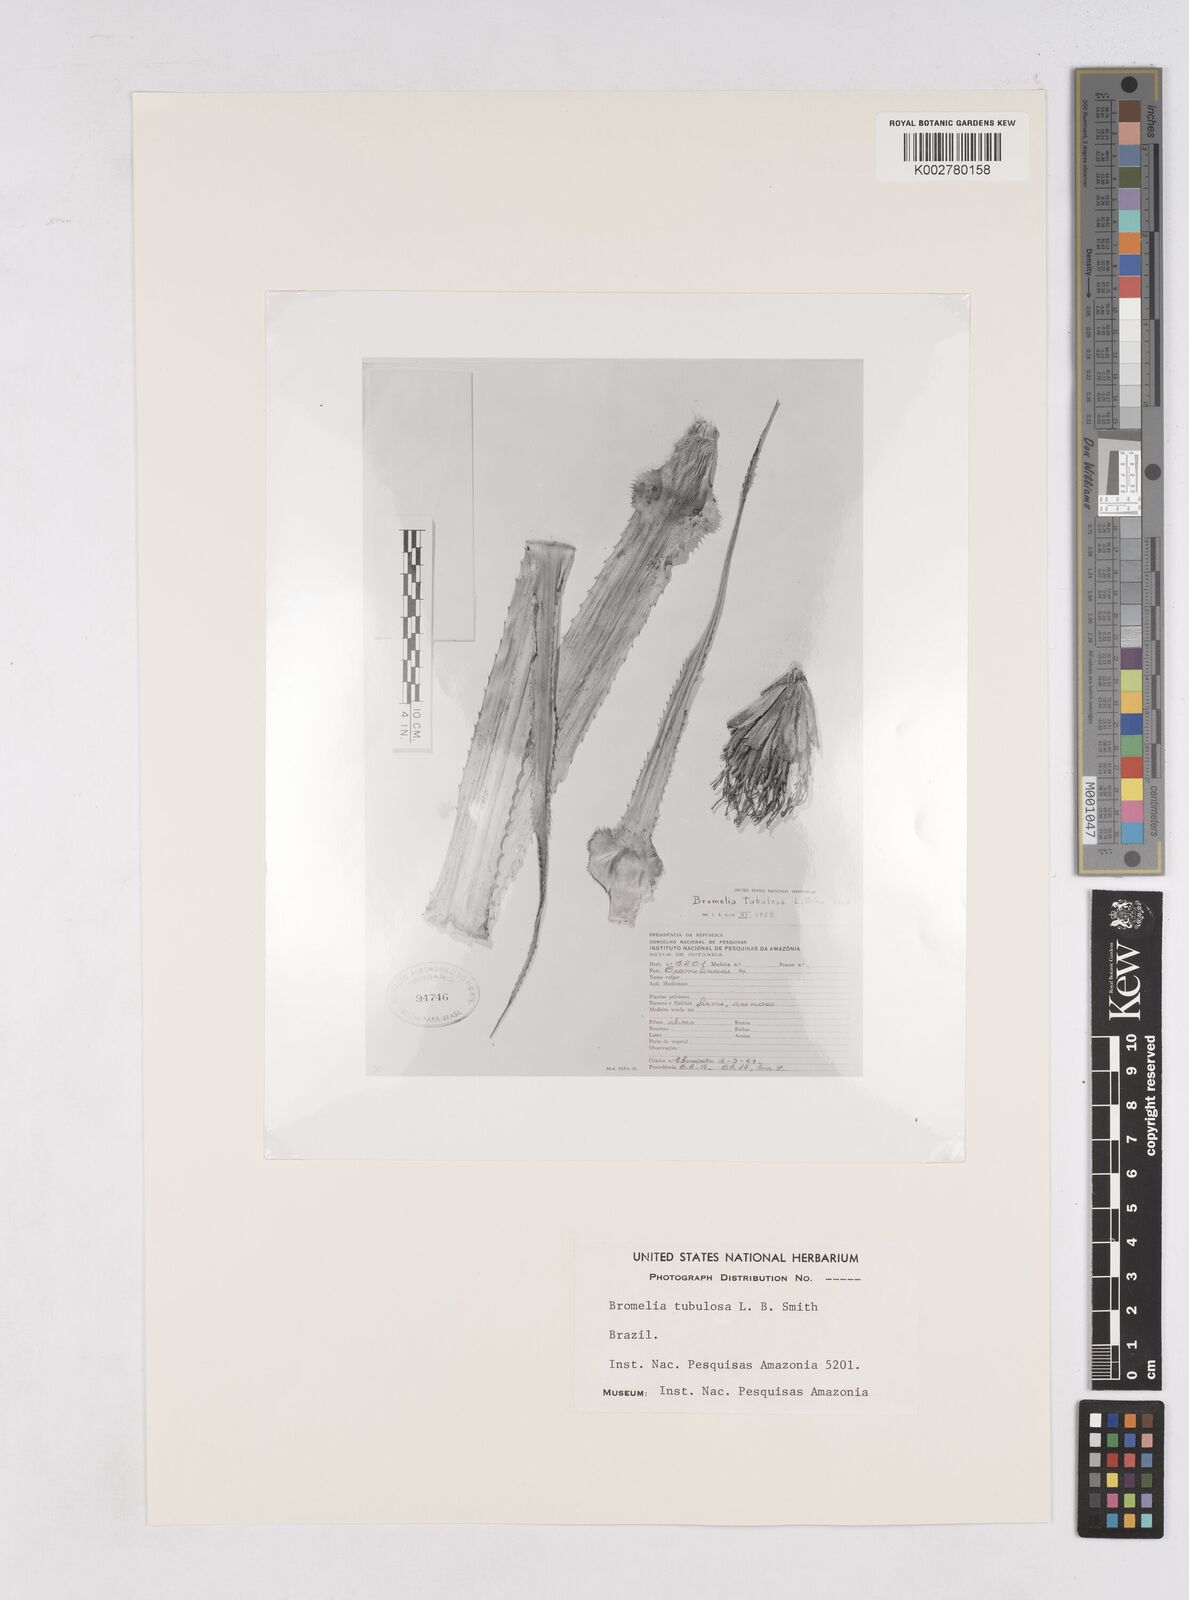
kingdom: Plantae
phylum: Tracheophyta
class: Liliopsida
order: Poales
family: Bromeliaceae
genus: Bromelia
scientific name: Bromelia tubulosa
